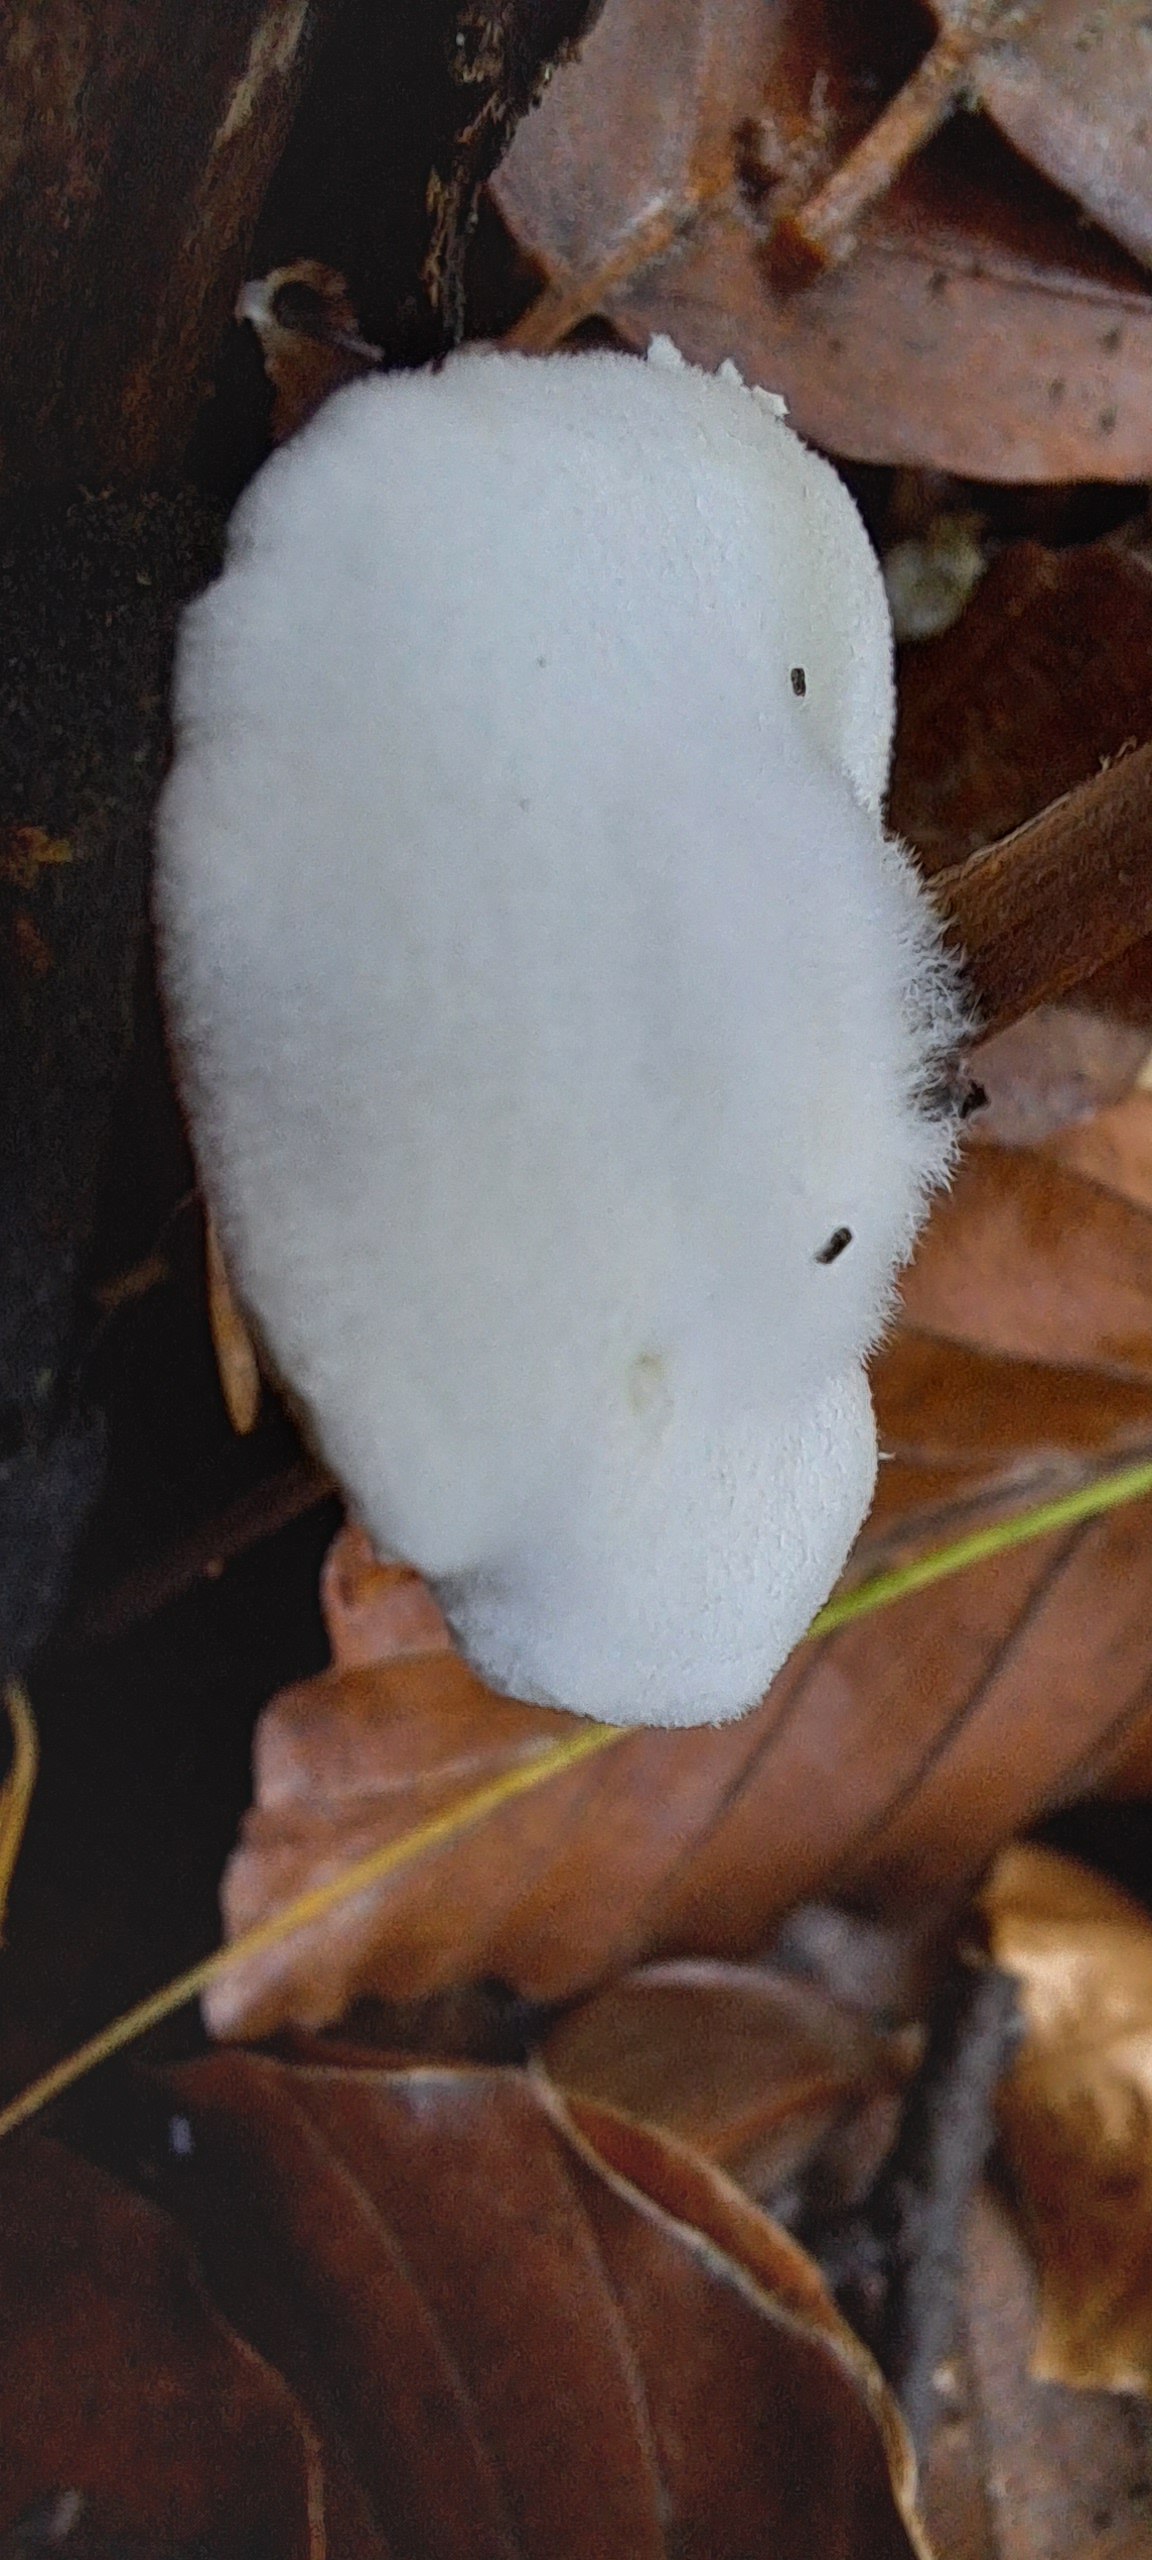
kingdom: Fungi
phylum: Basidiomycota
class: Agaricomycetes
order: Agaricales
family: Crepidotaceae
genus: Crepidotus
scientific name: Crepidotus
